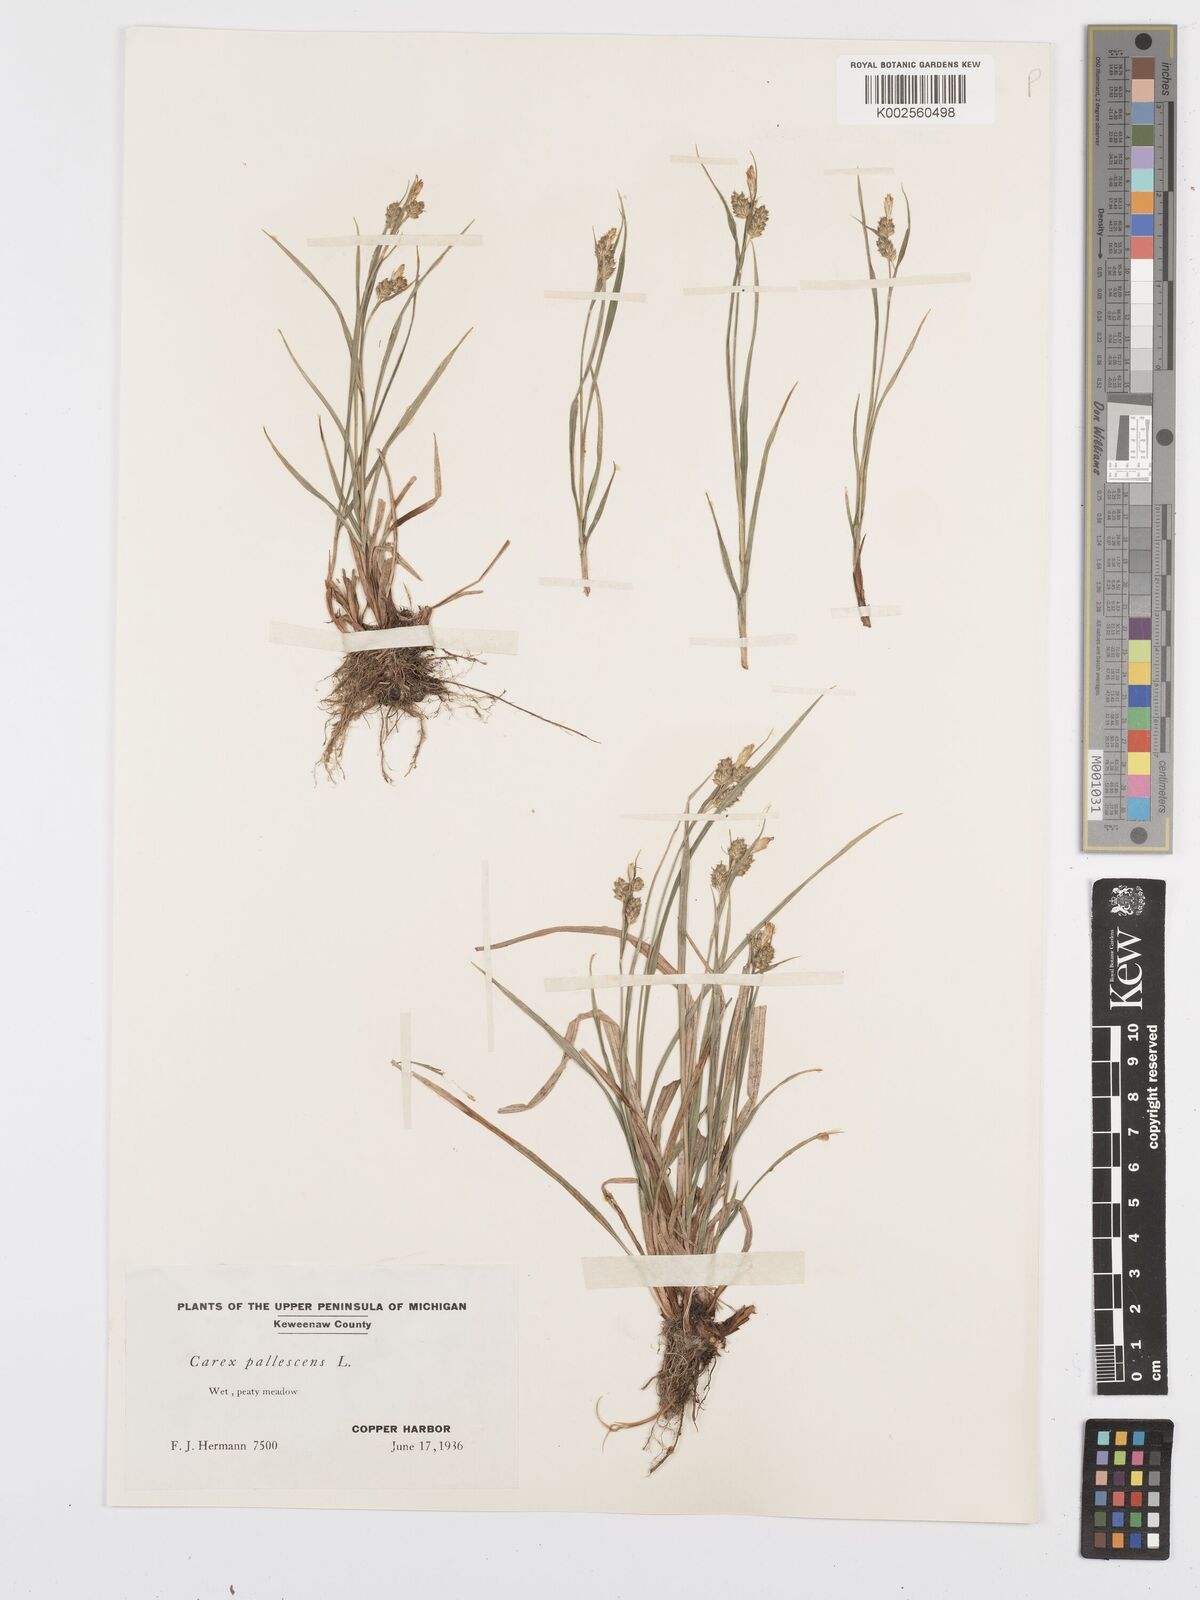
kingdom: Plantae
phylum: Tracheophyta
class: Liliopsida
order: Poales
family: Cyperaceae
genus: Carex
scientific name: Carex pallescens
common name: Pale sedge
